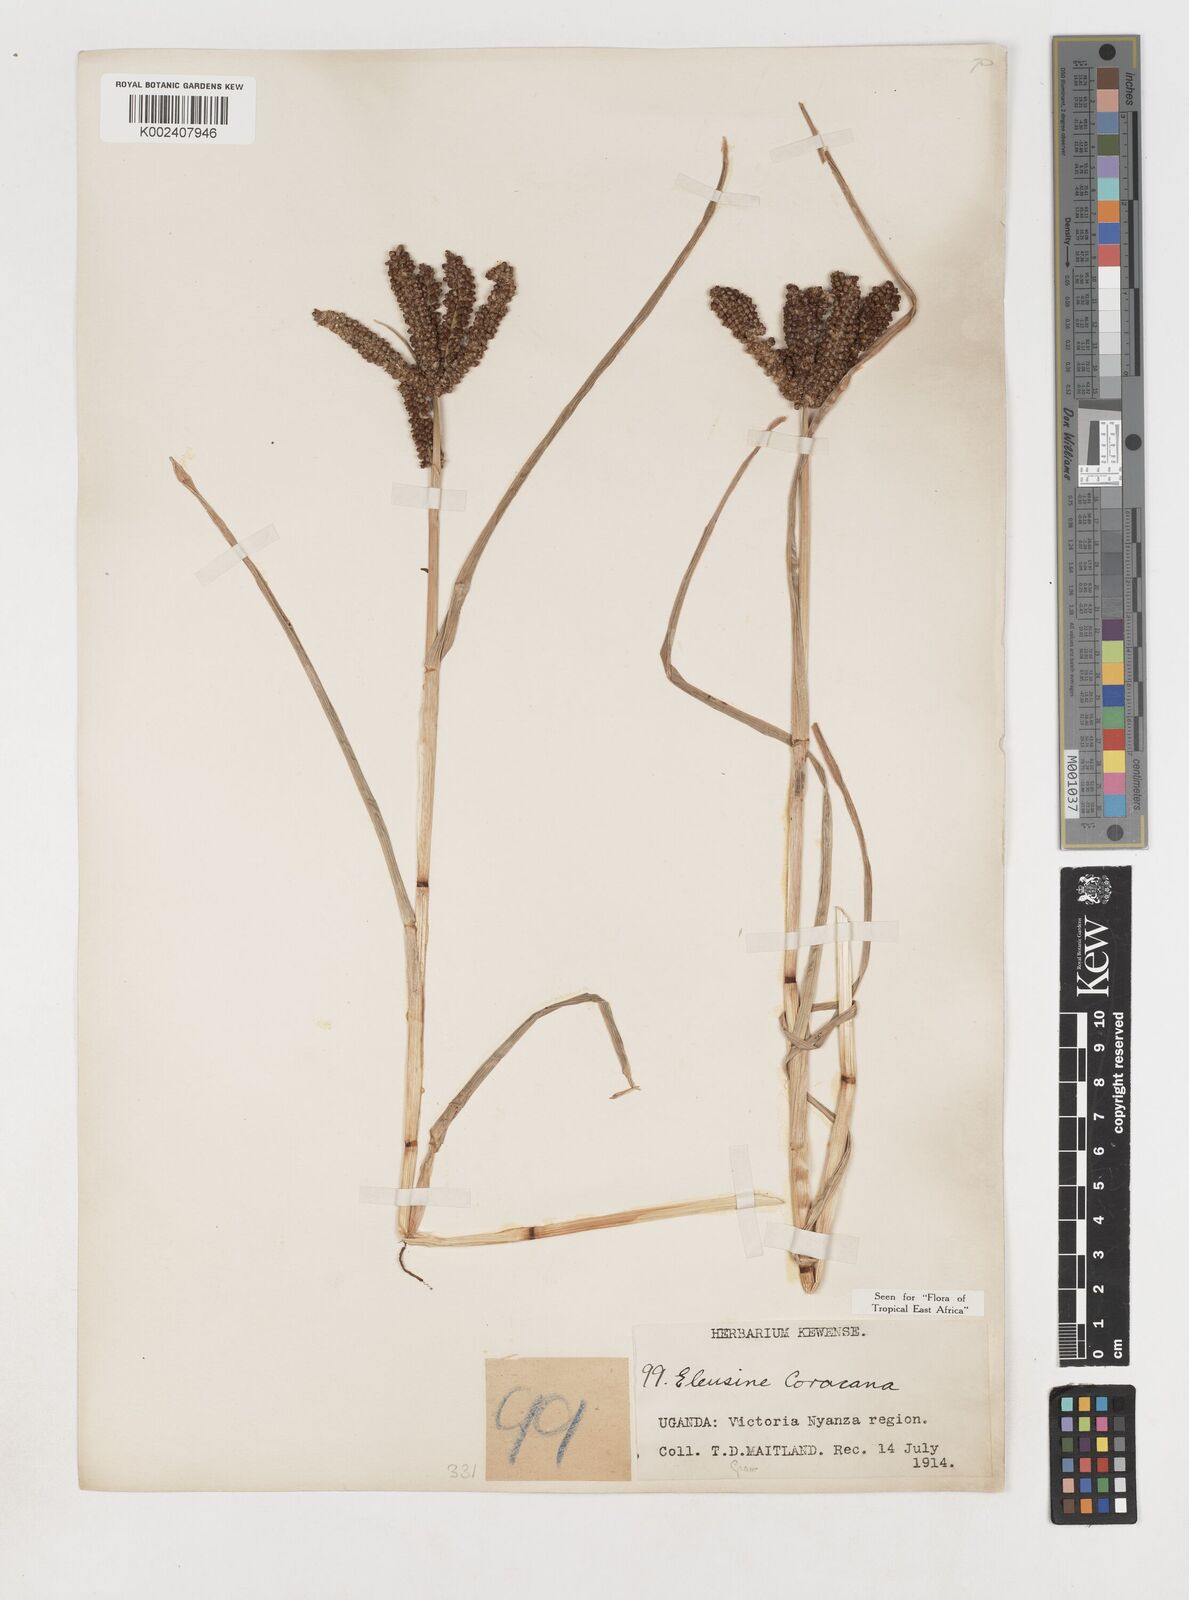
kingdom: Plantae
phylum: Tracheophyta
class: Liliopsida
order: Poales
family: Poaceae
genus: Eleusine
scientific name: Eleusine coracana
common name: Finger millet
